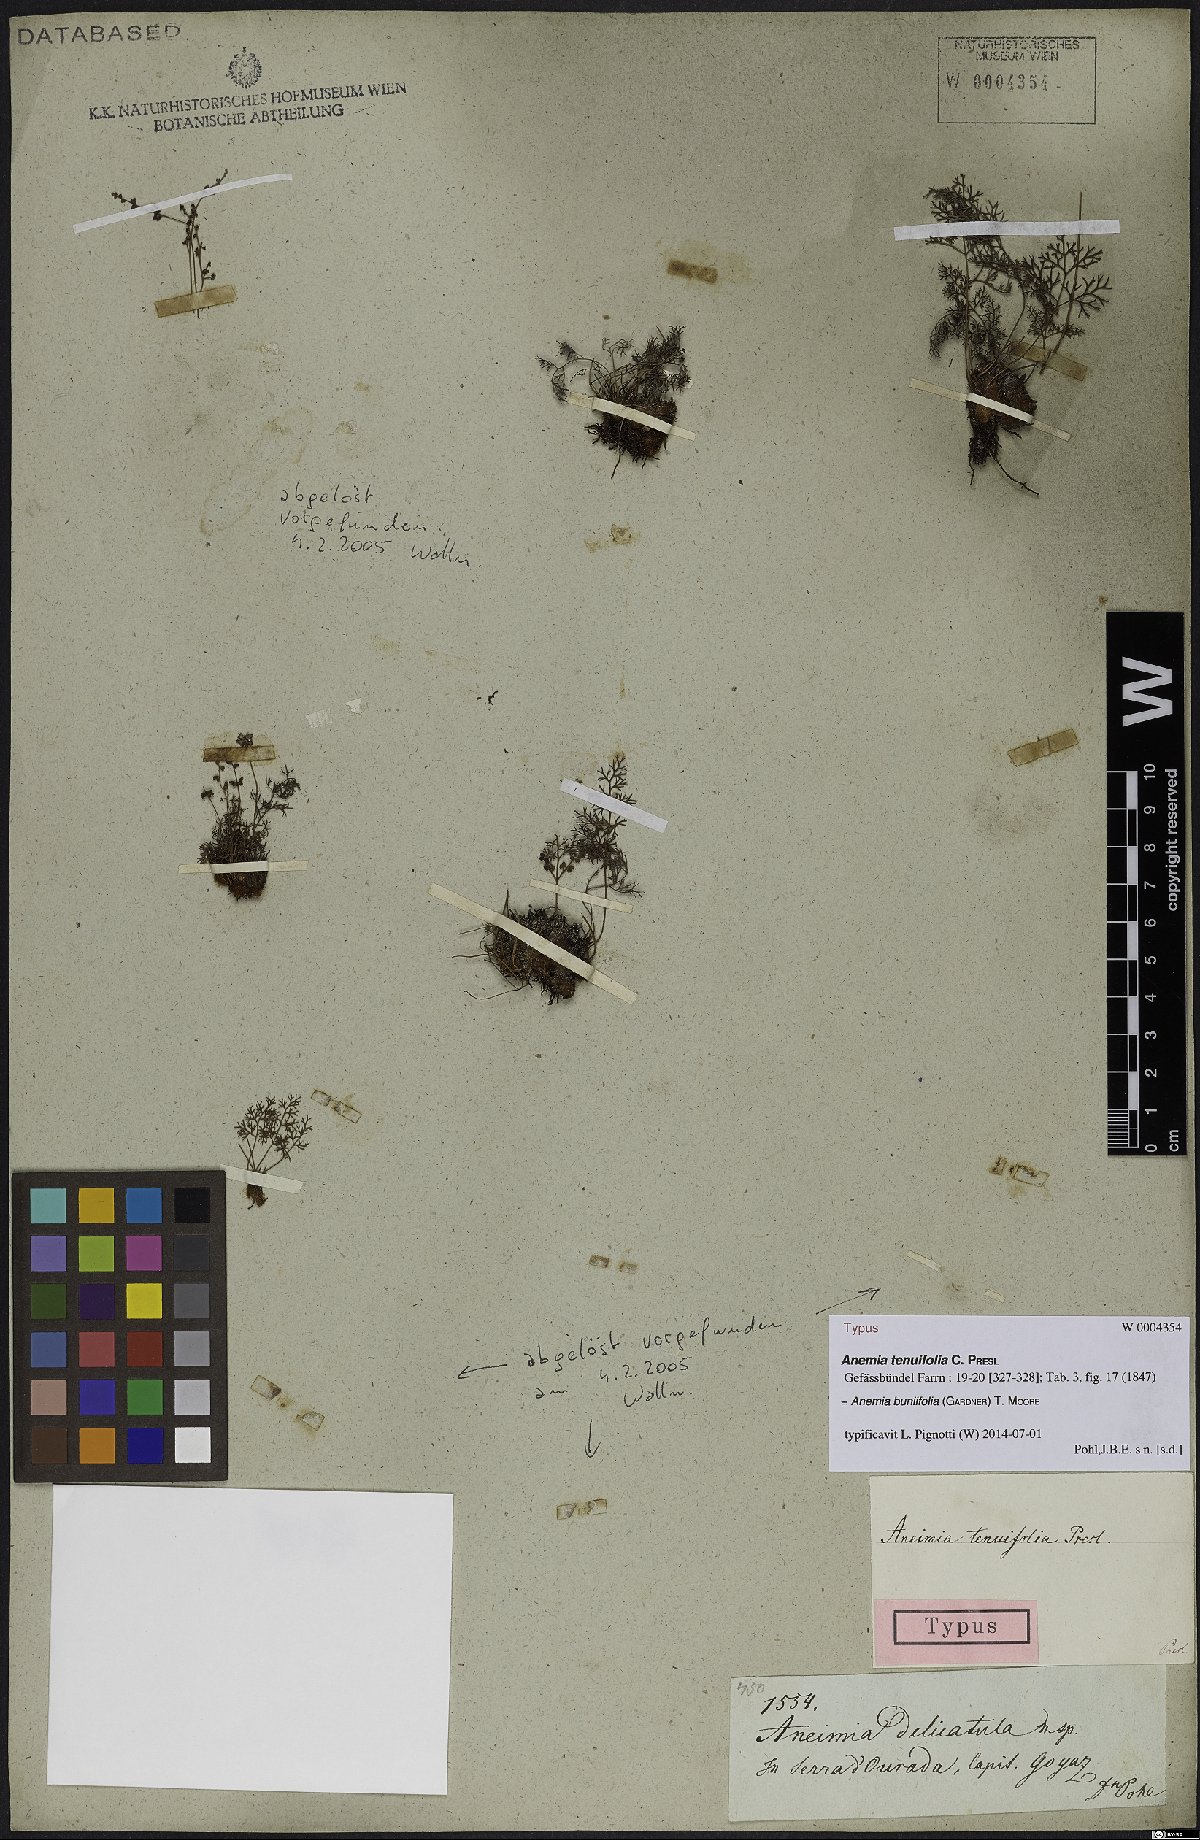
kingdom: Plantae
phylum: Tracheophyta
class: Polypodiopsida
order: Schizaeales
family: Anemiaceae
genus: Anemia
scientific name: Anemia buniifolia
